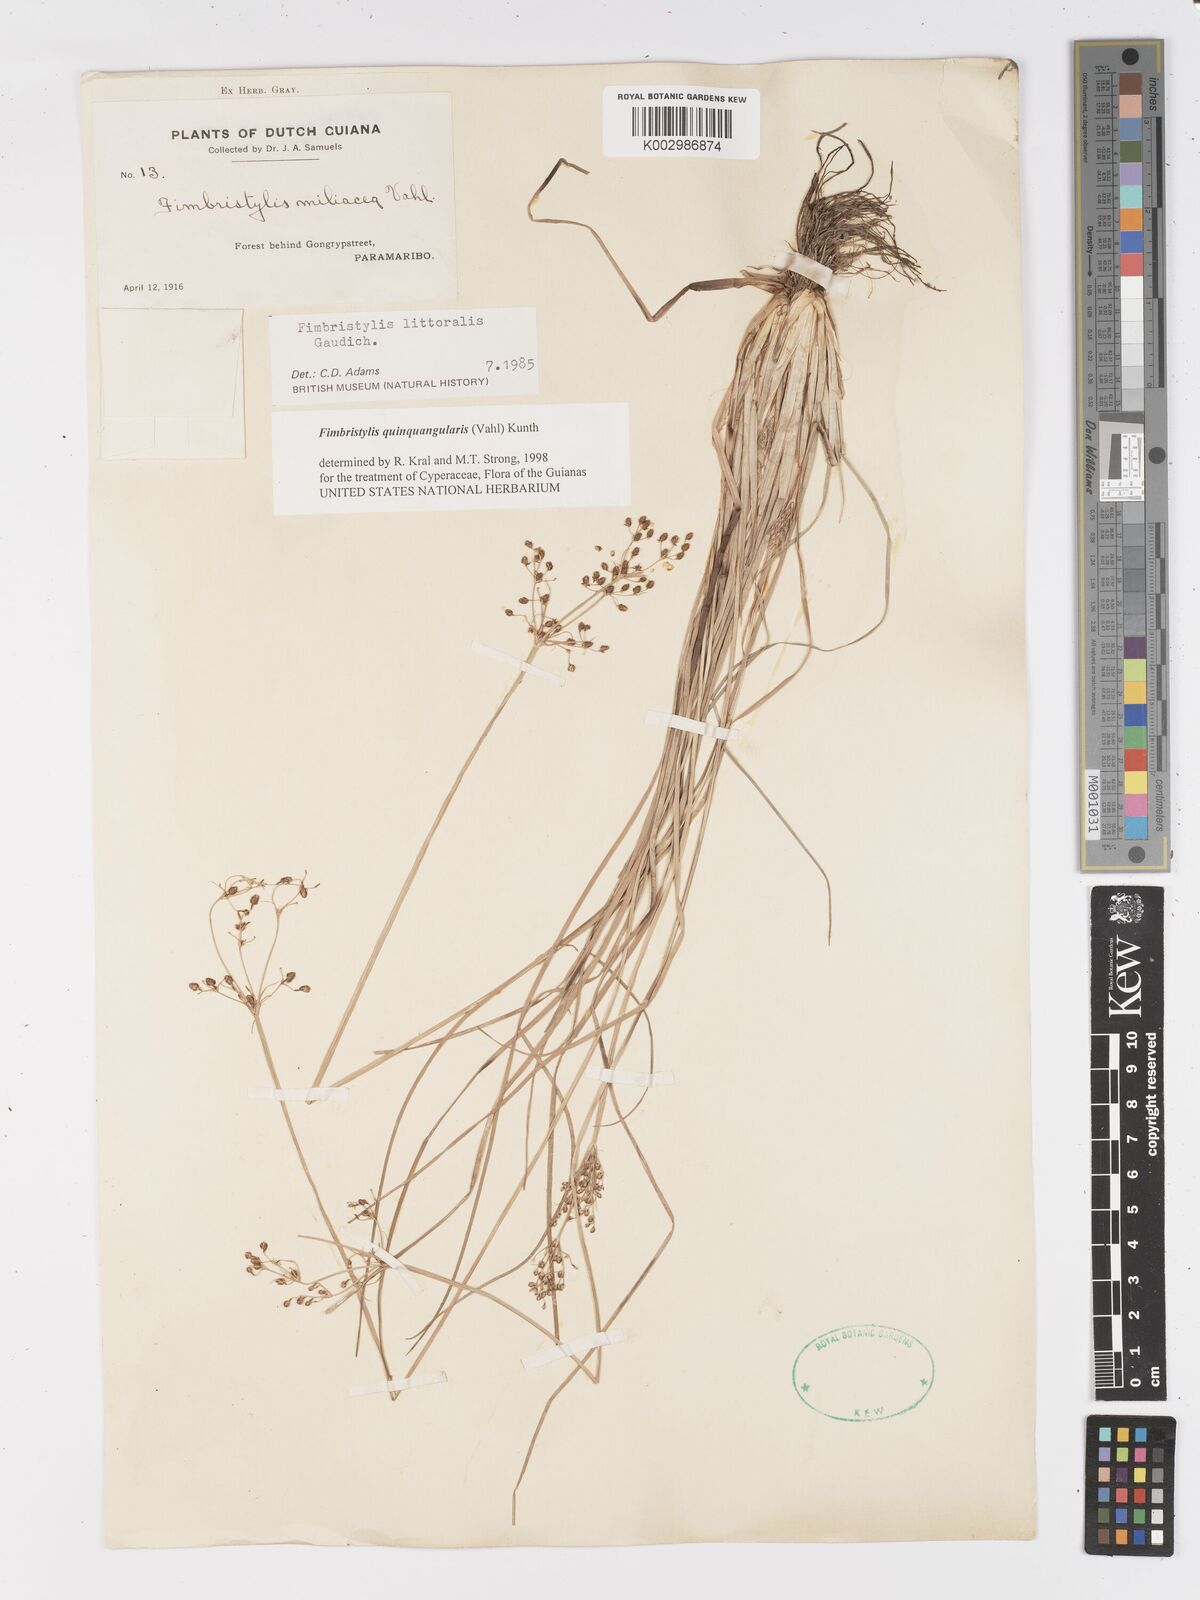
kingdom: Plantae
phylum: Tracheophyta
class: Liliopsida
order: Poales
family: Cyperaceae
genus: Fimbristylis
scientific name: Fimbristylis quinquangularis
